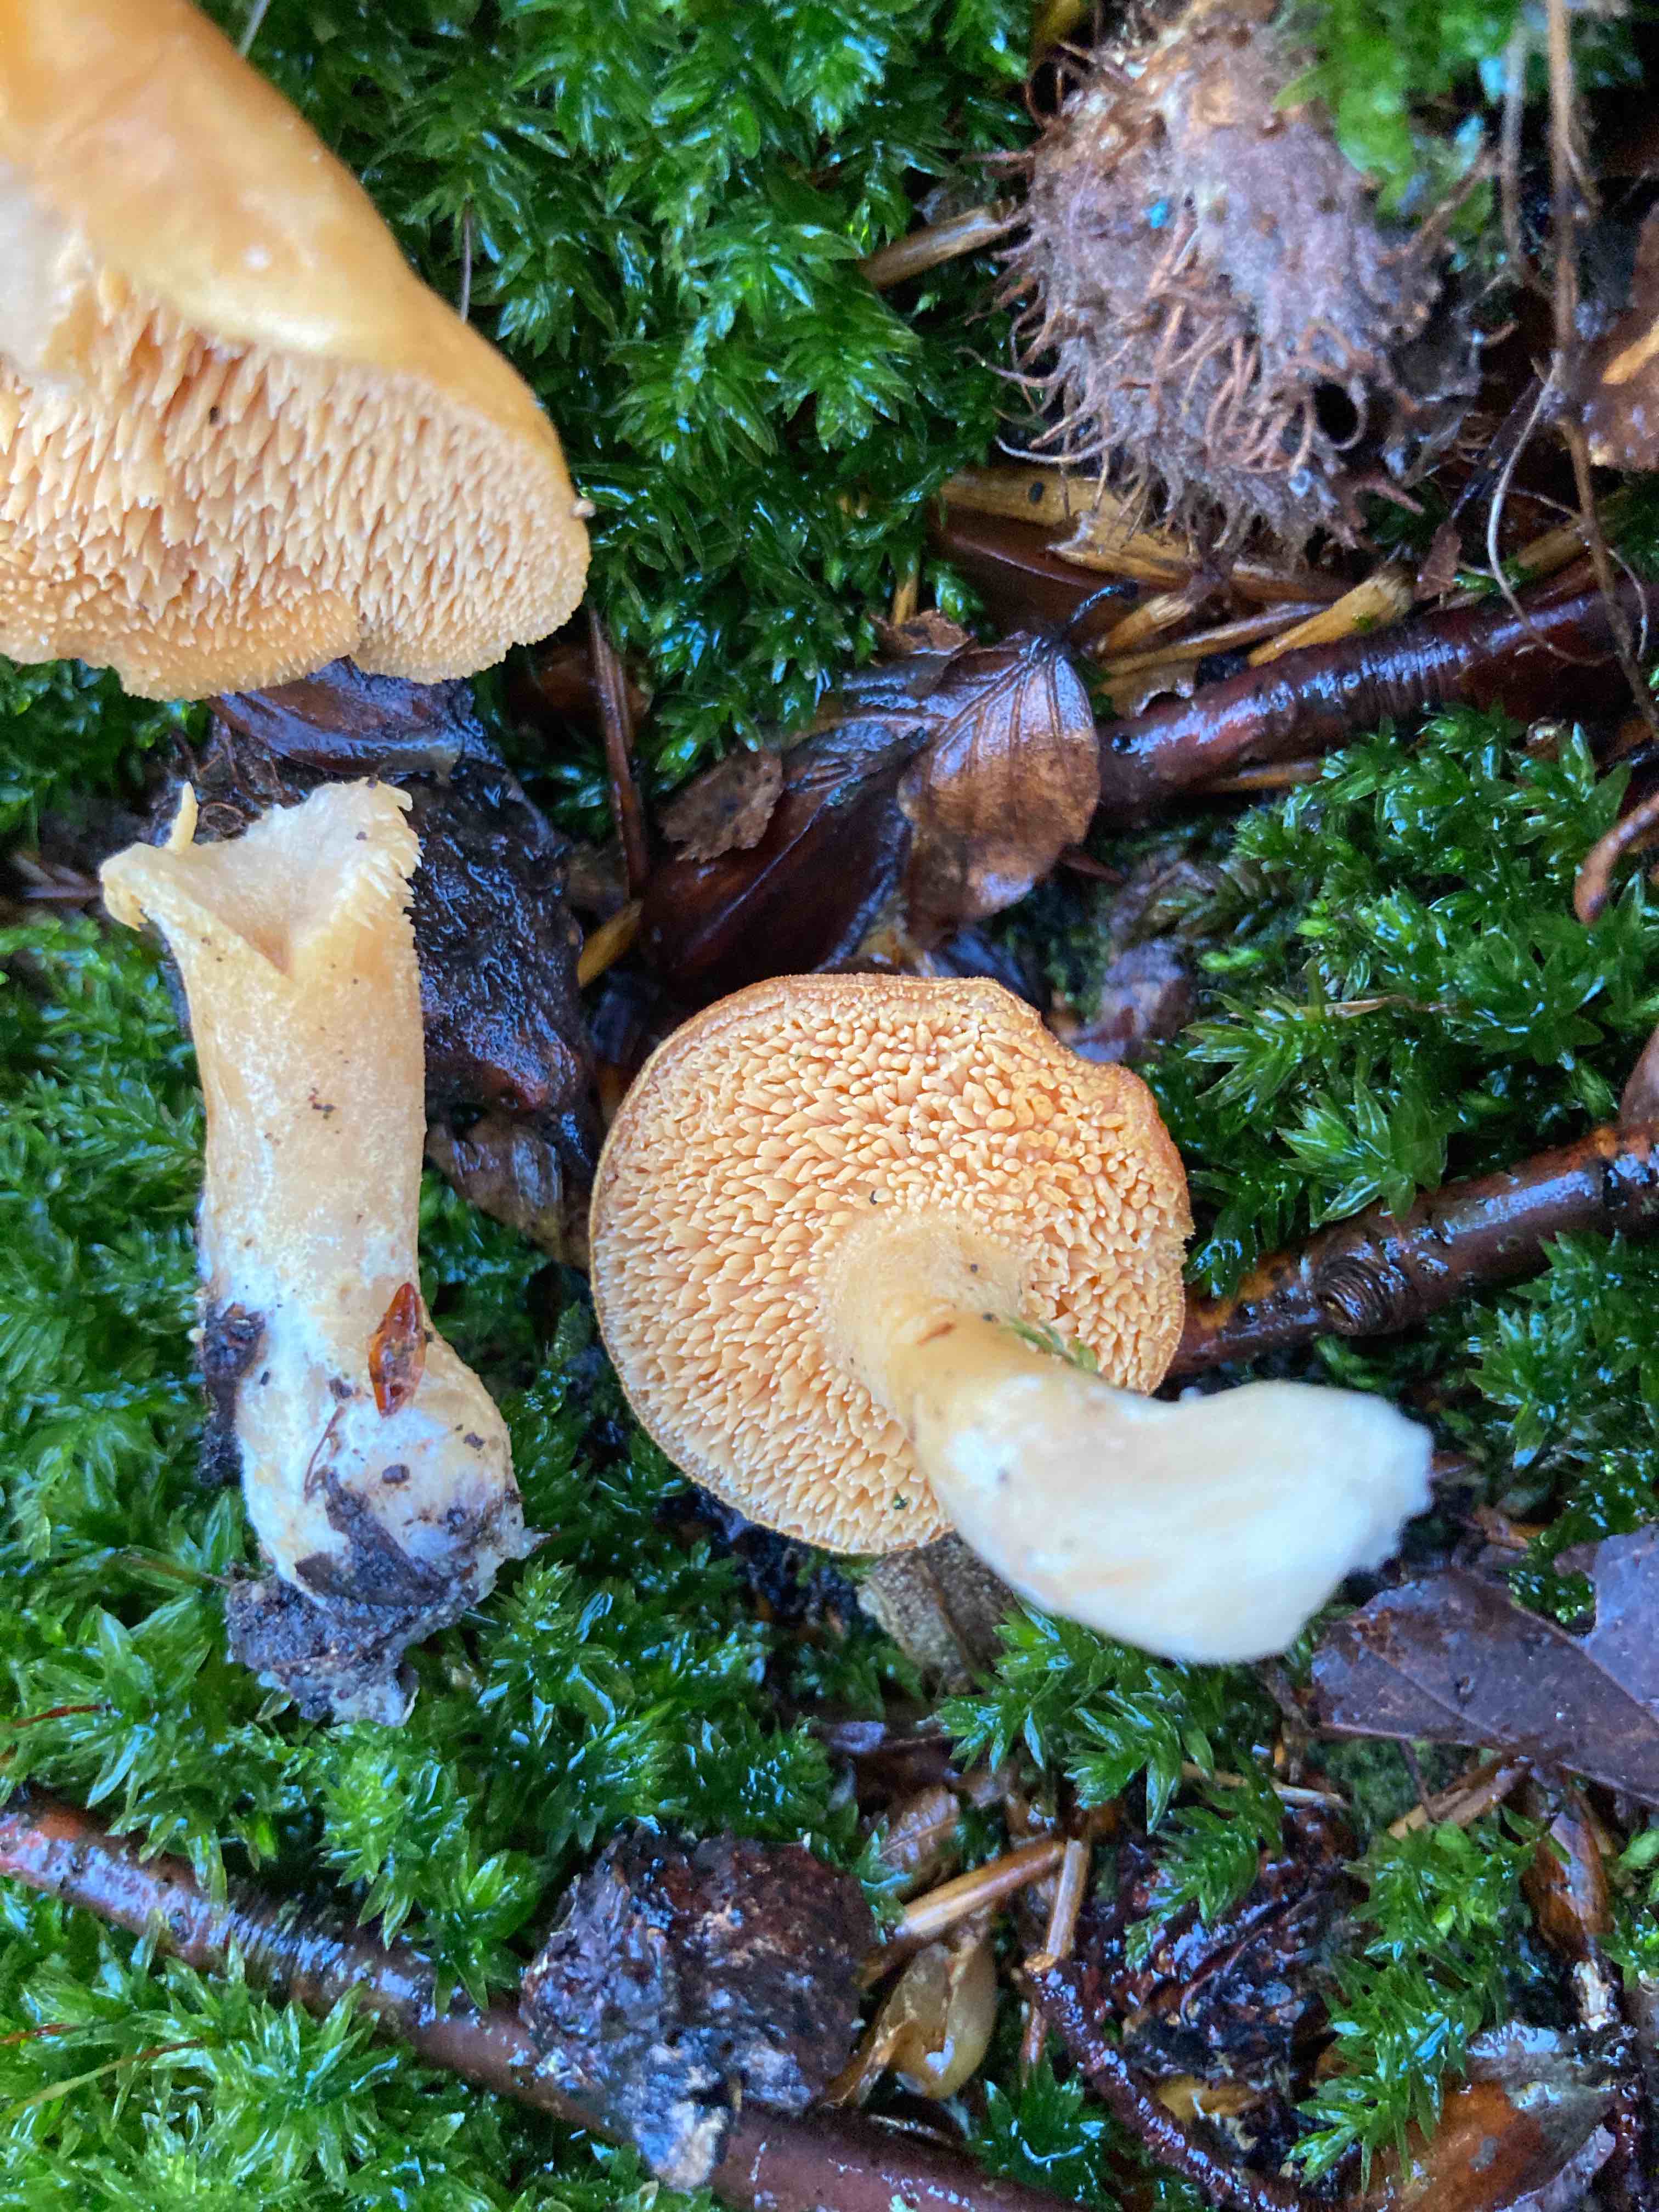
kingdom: Fungi
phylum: Basidiomycota
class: Agaricomycetes
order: Cantharellales
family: Hydnaceae
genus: Hydnum
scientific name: Hydnum
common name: pigsvamp
